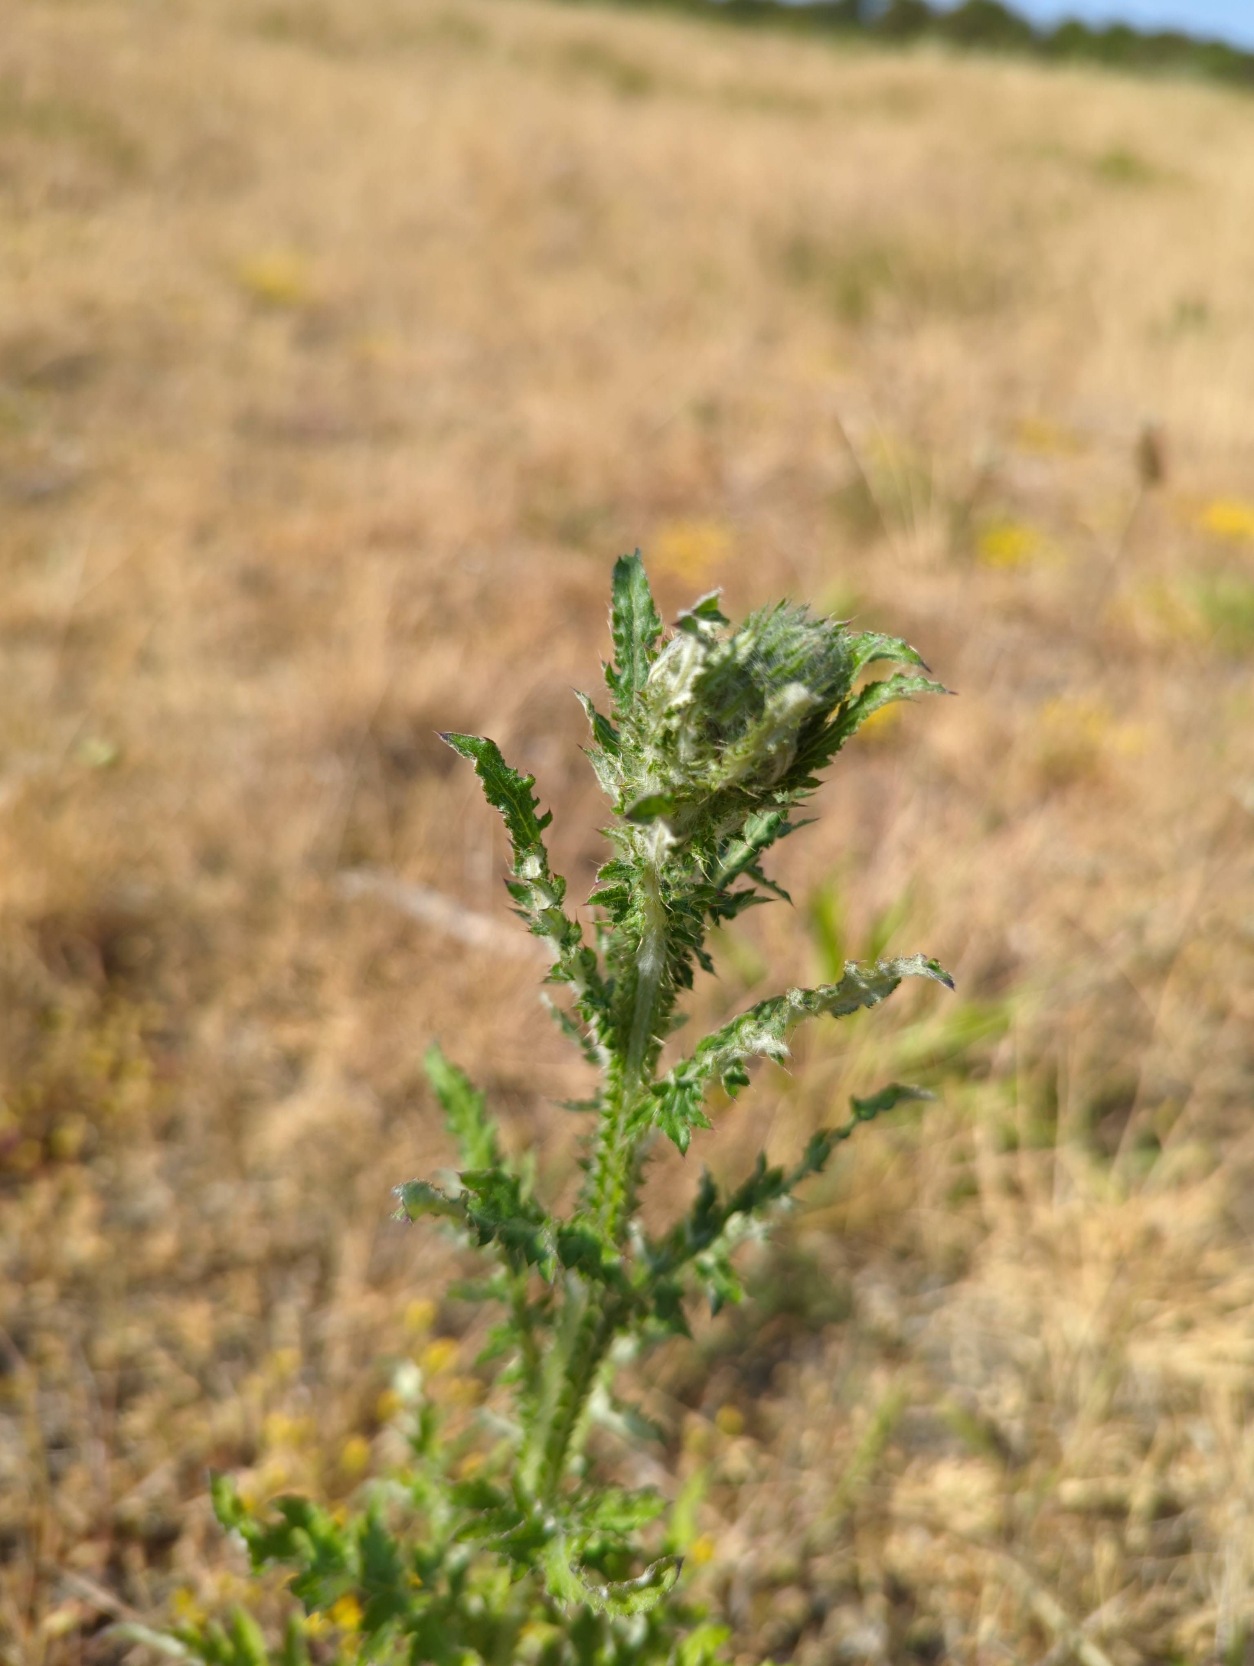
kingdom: Plantae
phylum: Tracheophyta
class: Magnoliopsida
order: Asterales
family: Asteraceae
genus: Carduus
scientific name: Carduus crispus
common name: Kruset tidsel
